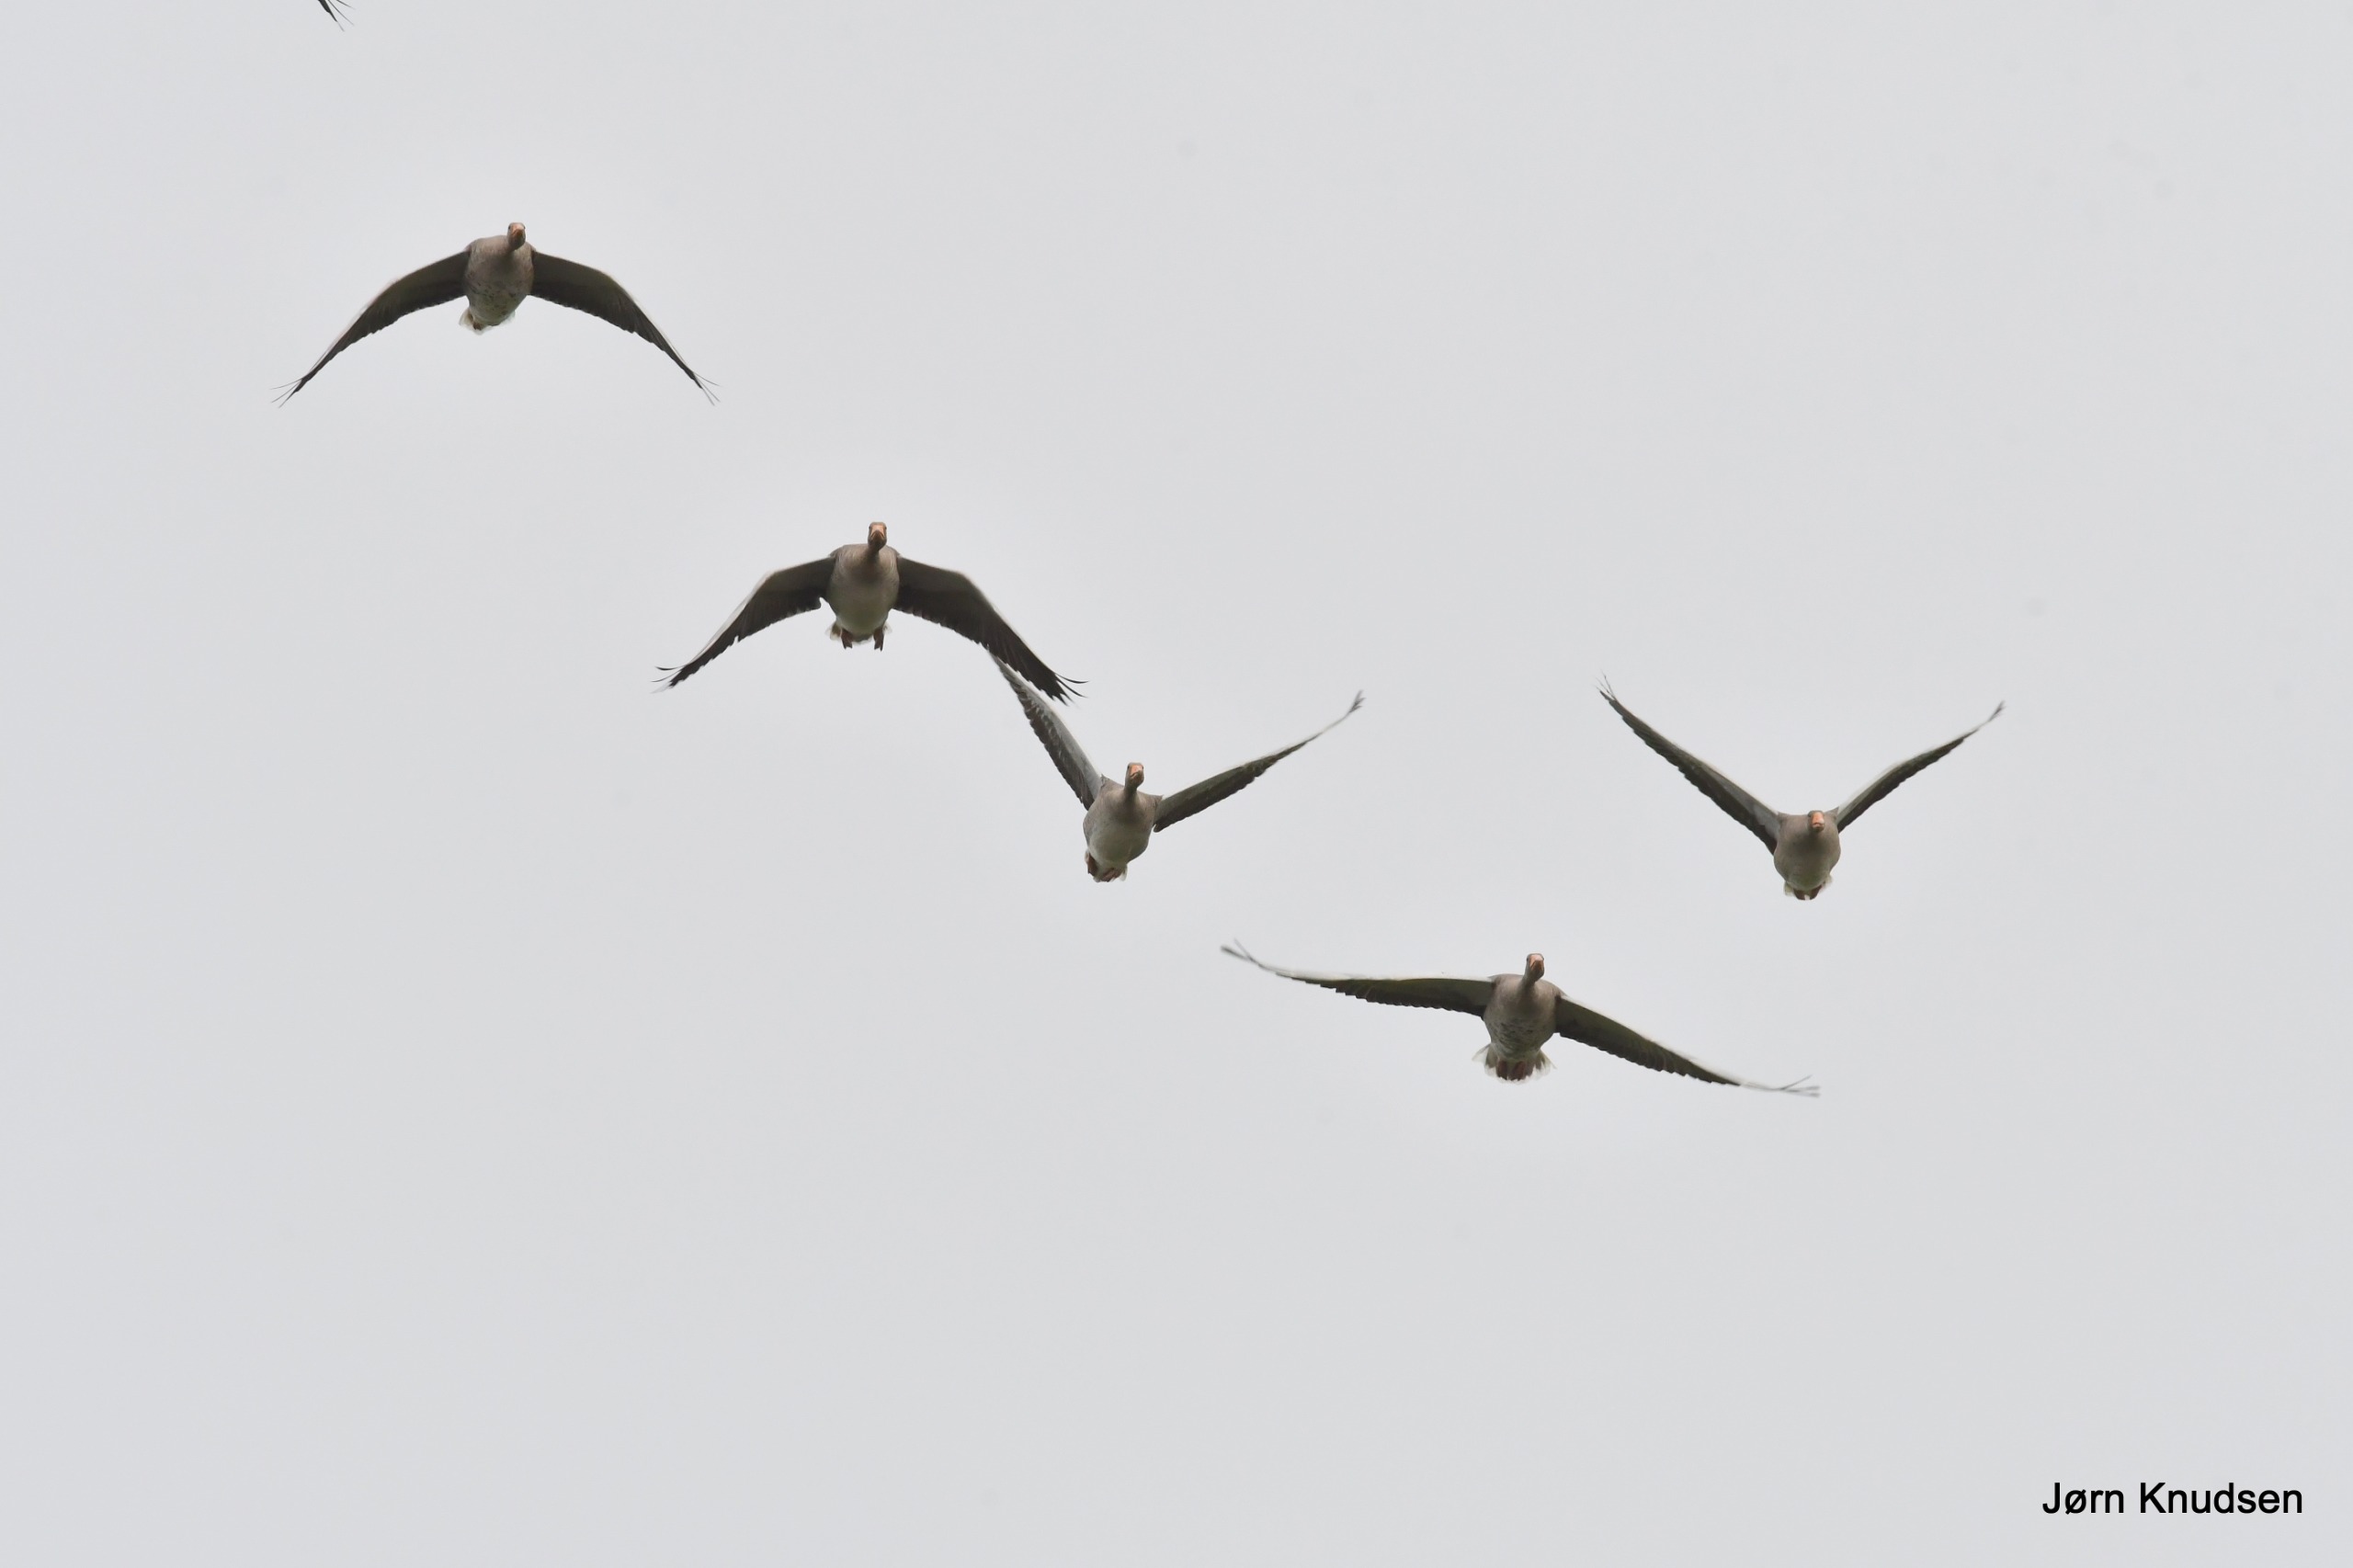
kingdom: Animalia
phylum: Chordata
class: Aves
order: Anseriformes
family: Anatidae
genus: Anser
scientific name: Anser anser
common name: Grågås
